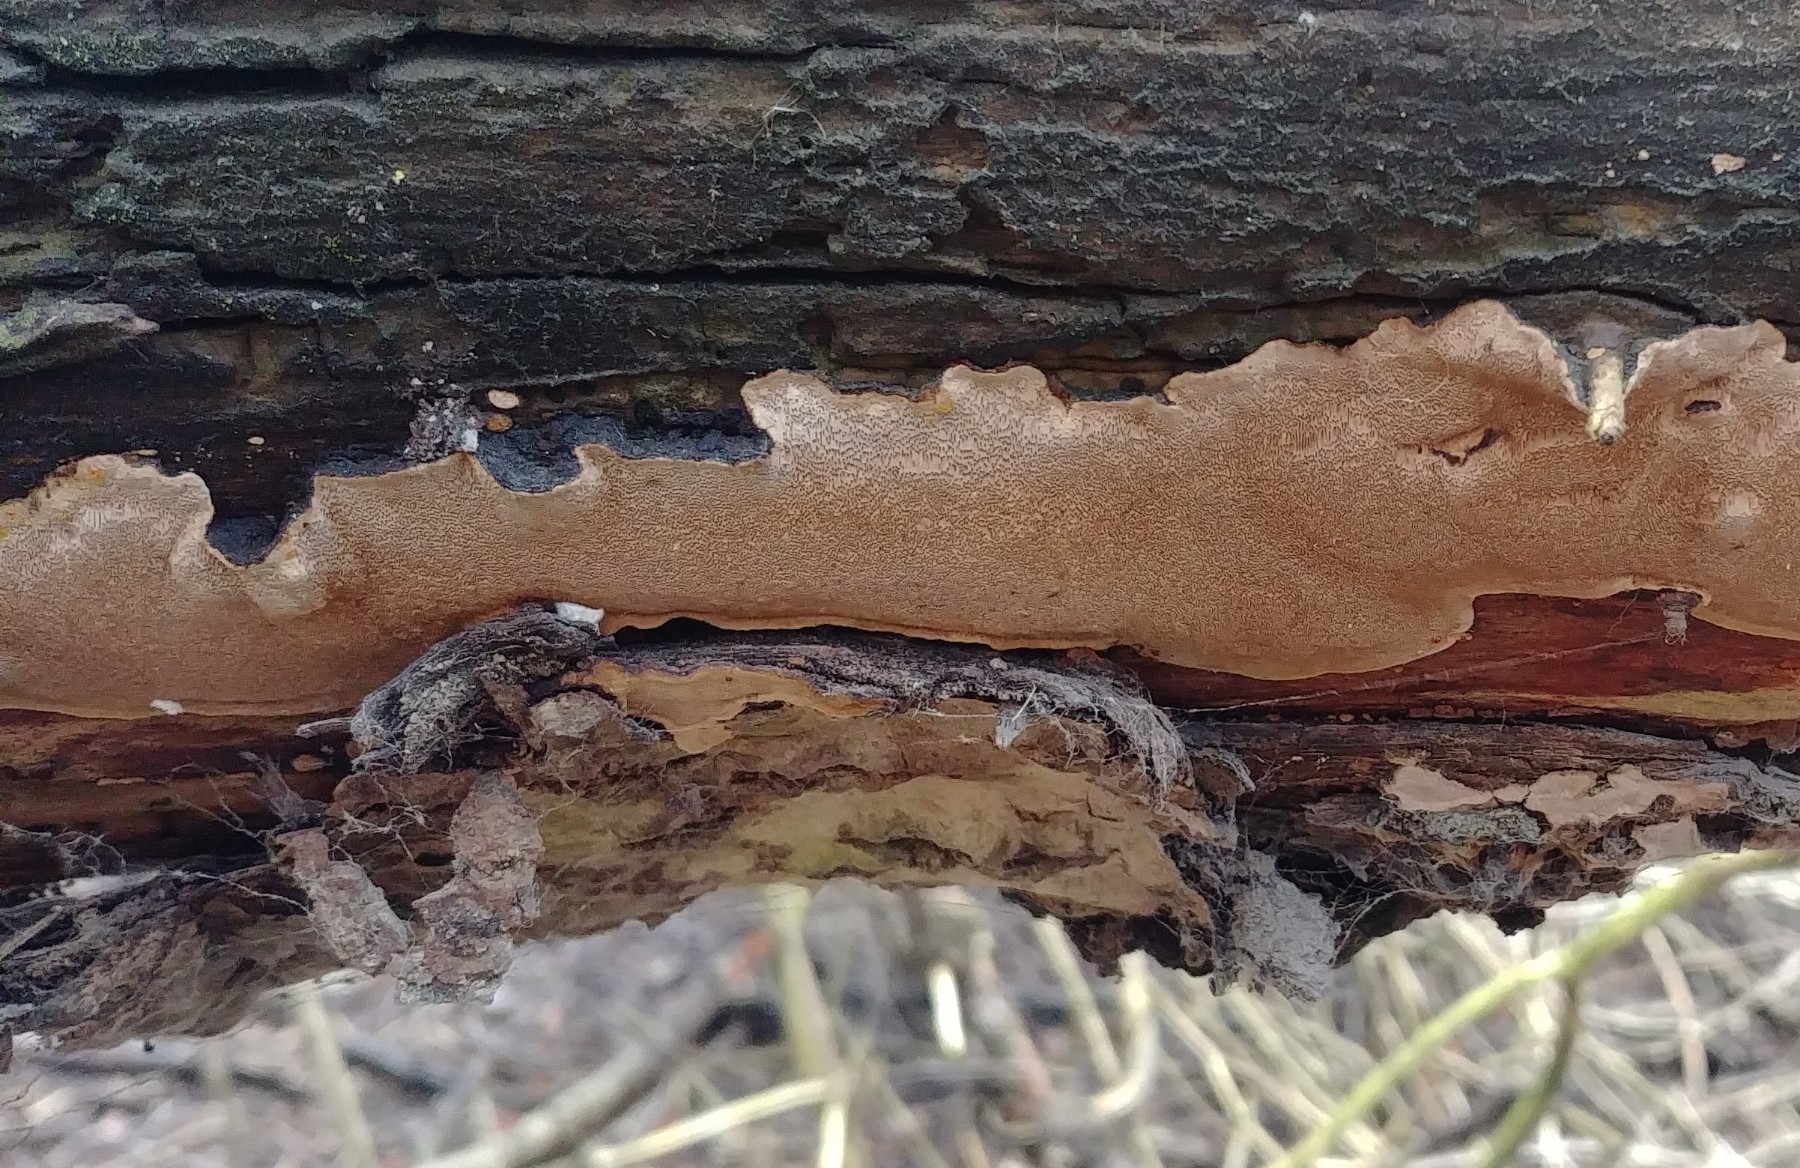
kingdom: Fungi
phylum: Basidiomycota
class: Agaricomycetes
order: Hymenochaetales
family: Hymenochaetaceae
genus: Phellinopsis
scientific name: Phellinopsis conchata
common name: pile-ildporesvamp
